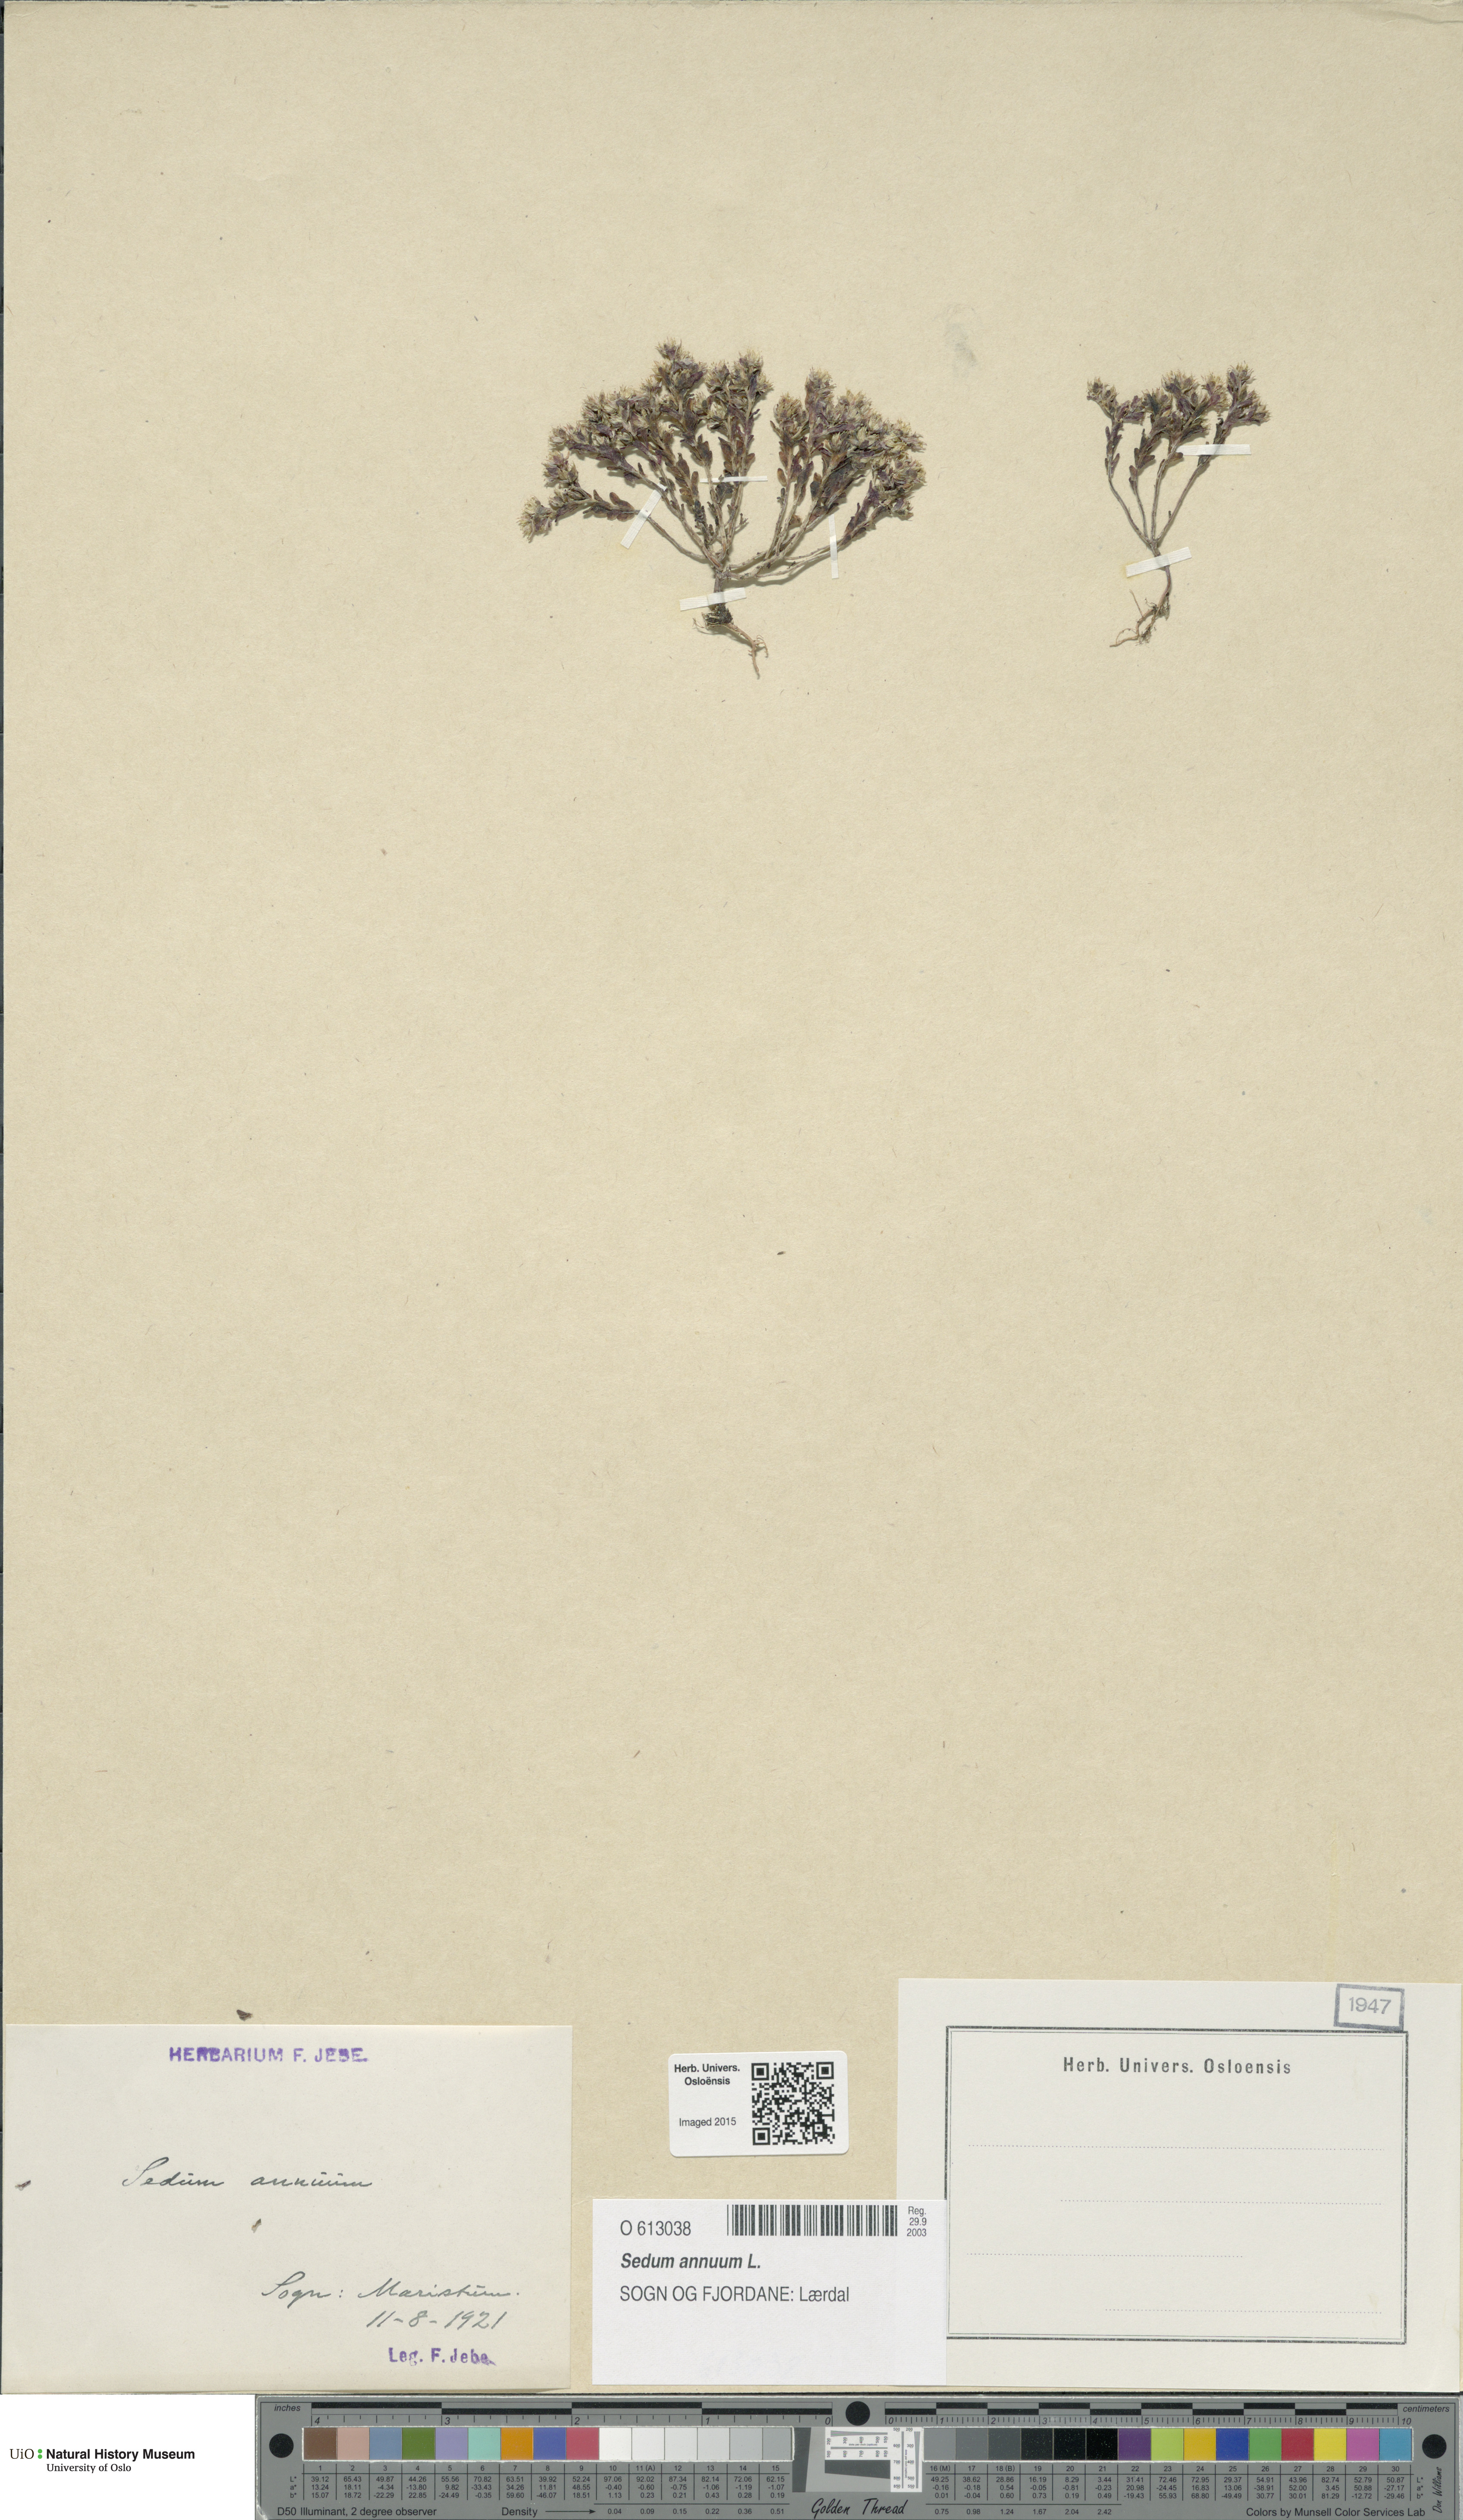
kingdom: Plantae
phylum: Tracheophyta
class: Magnoliopsida
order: Saxifragales
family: Crassulaceae
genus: Sedum
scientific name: Sedum annuum
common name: Annual stonecrop
